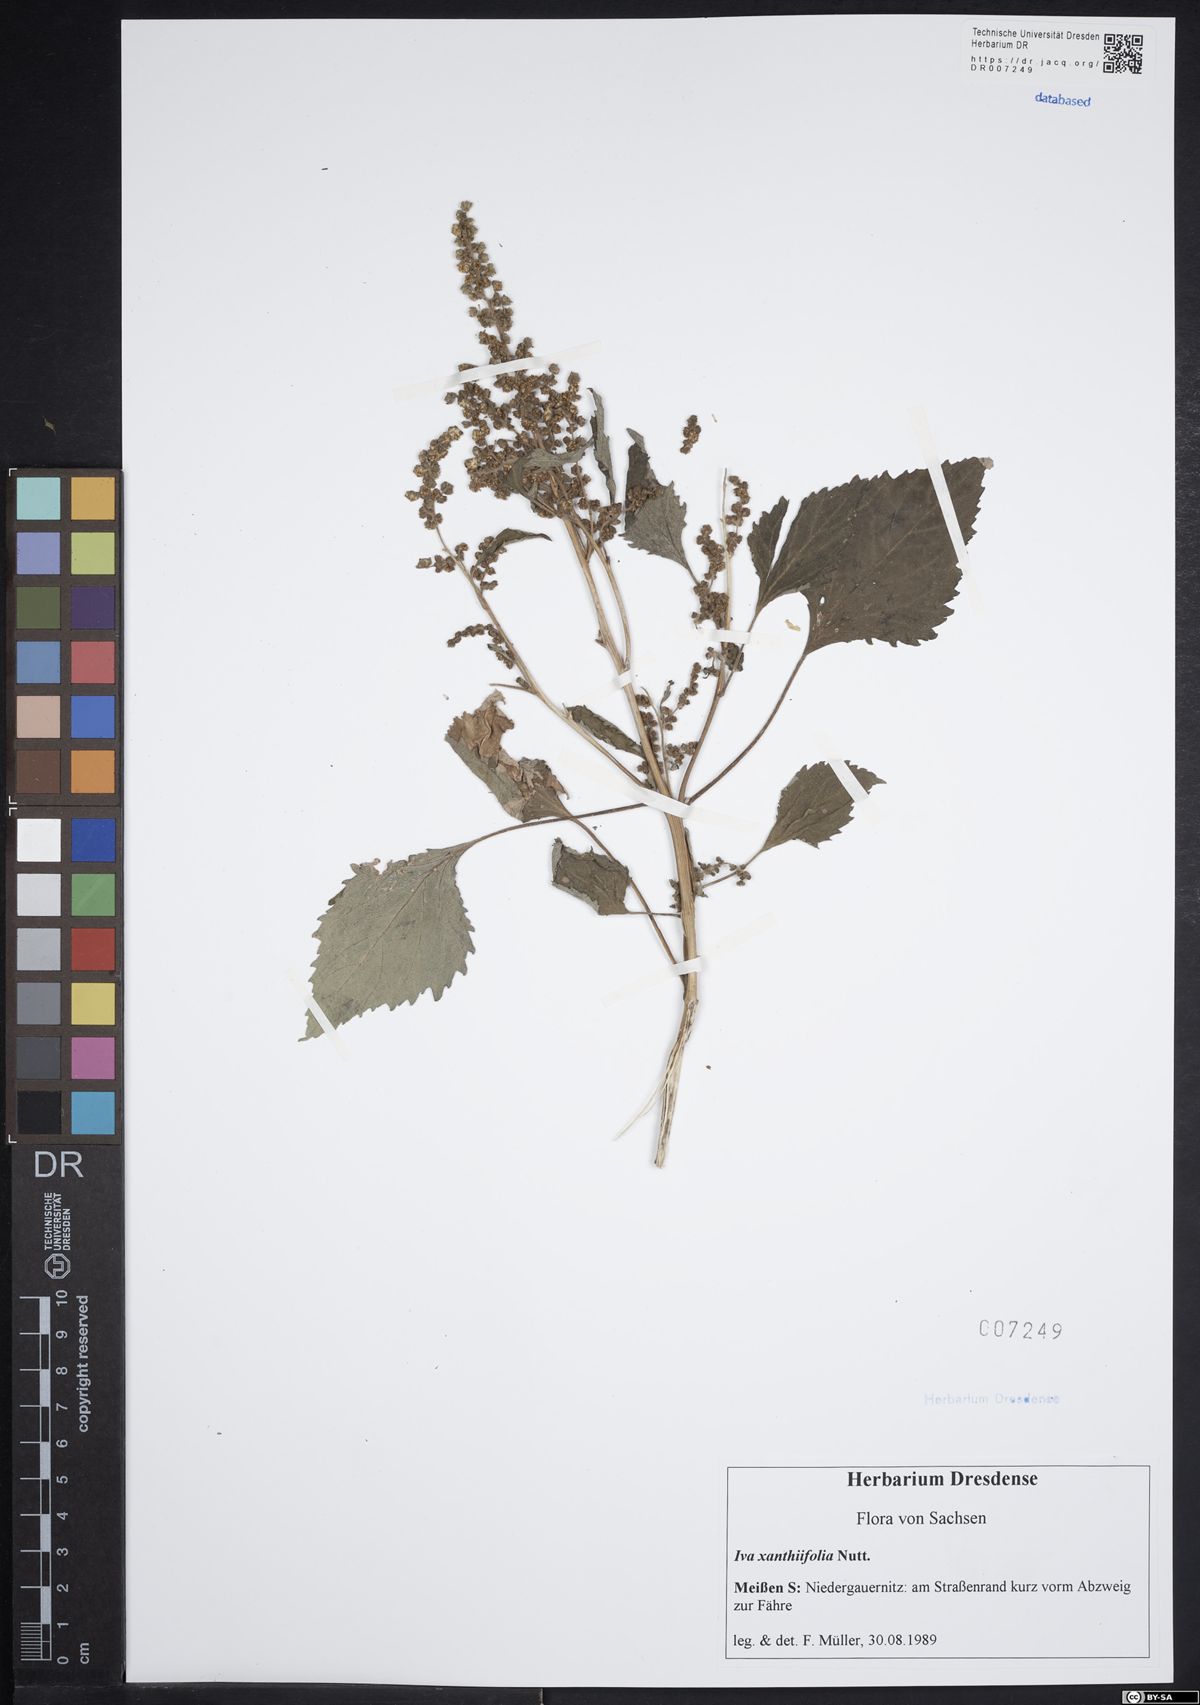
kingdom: Plantae
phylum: Tracheophyta
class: Magnoliopsida
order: Asterales
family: Asteraceae
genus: Cyclachaena
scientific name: Cyclachaena xanthiifolia
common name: Giant sumpweed
